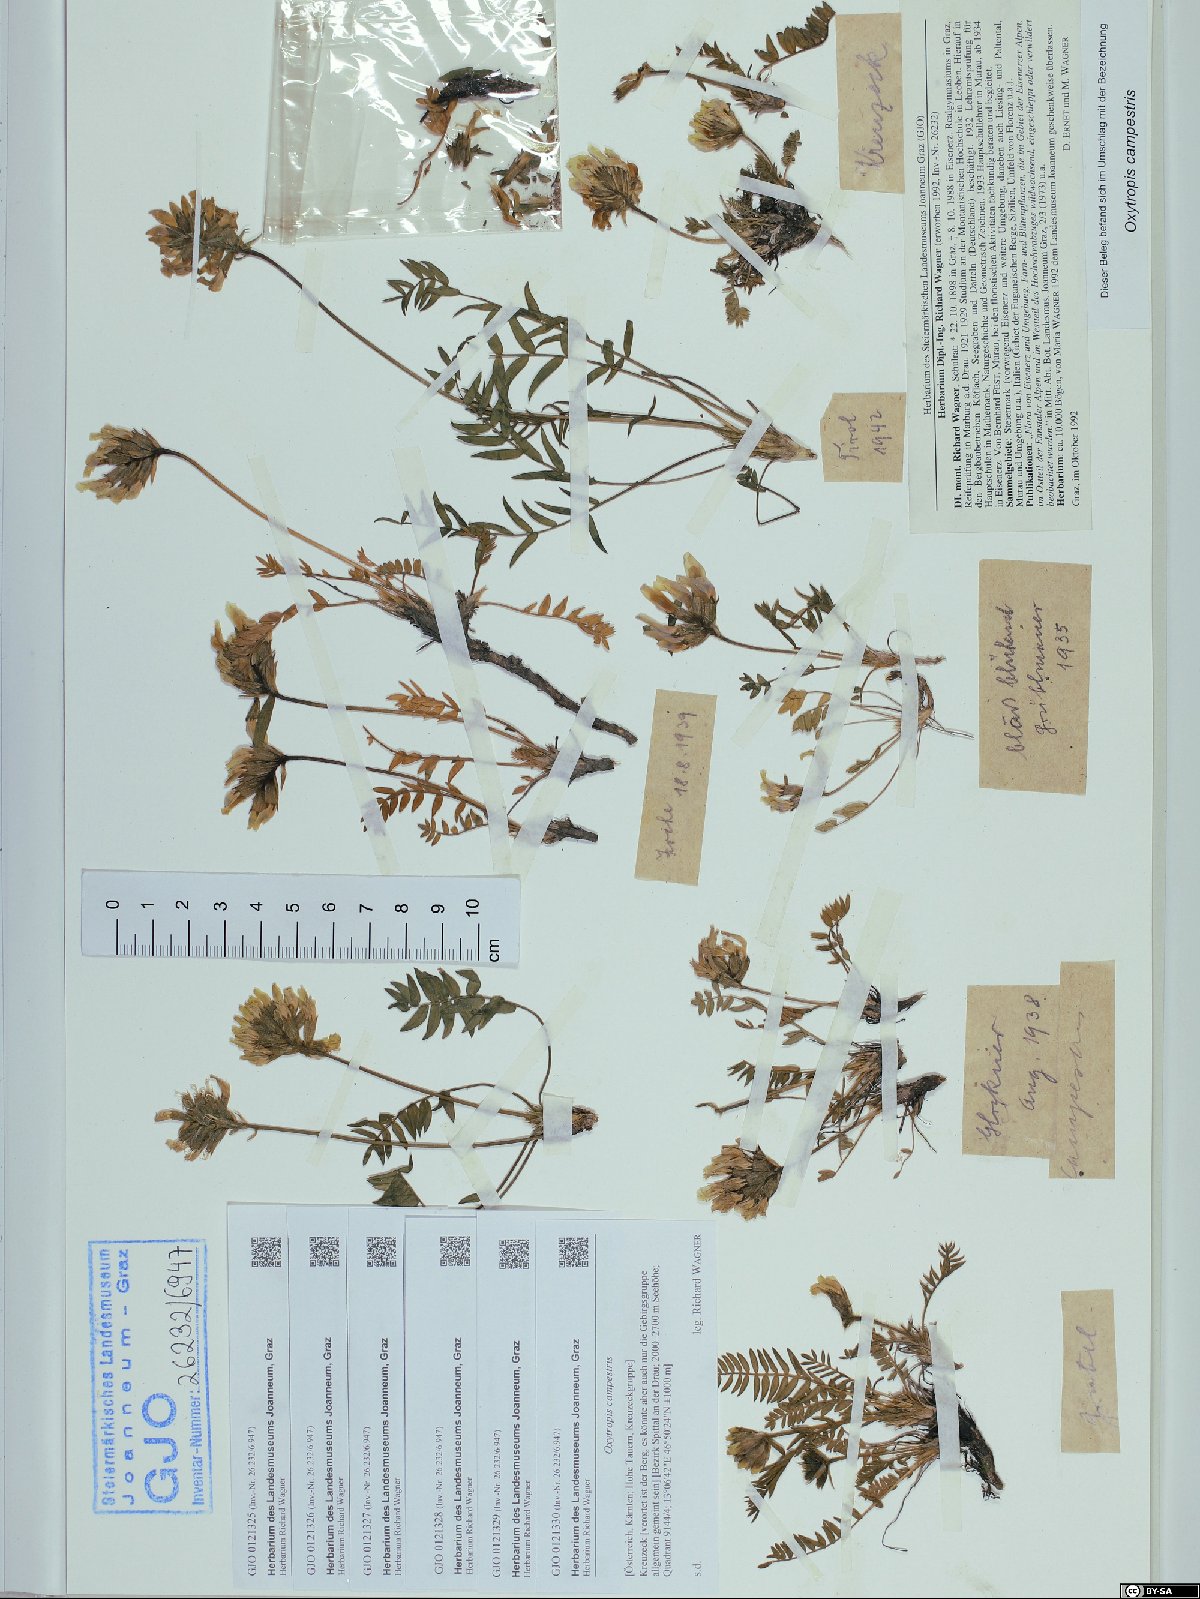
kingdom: Plantae
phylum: Tracheophyta
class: Magnoliopsida
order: Fabales
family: Fabaceae
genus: Oxytropis
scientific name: Oxytropis campestris
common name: Field locoweed
